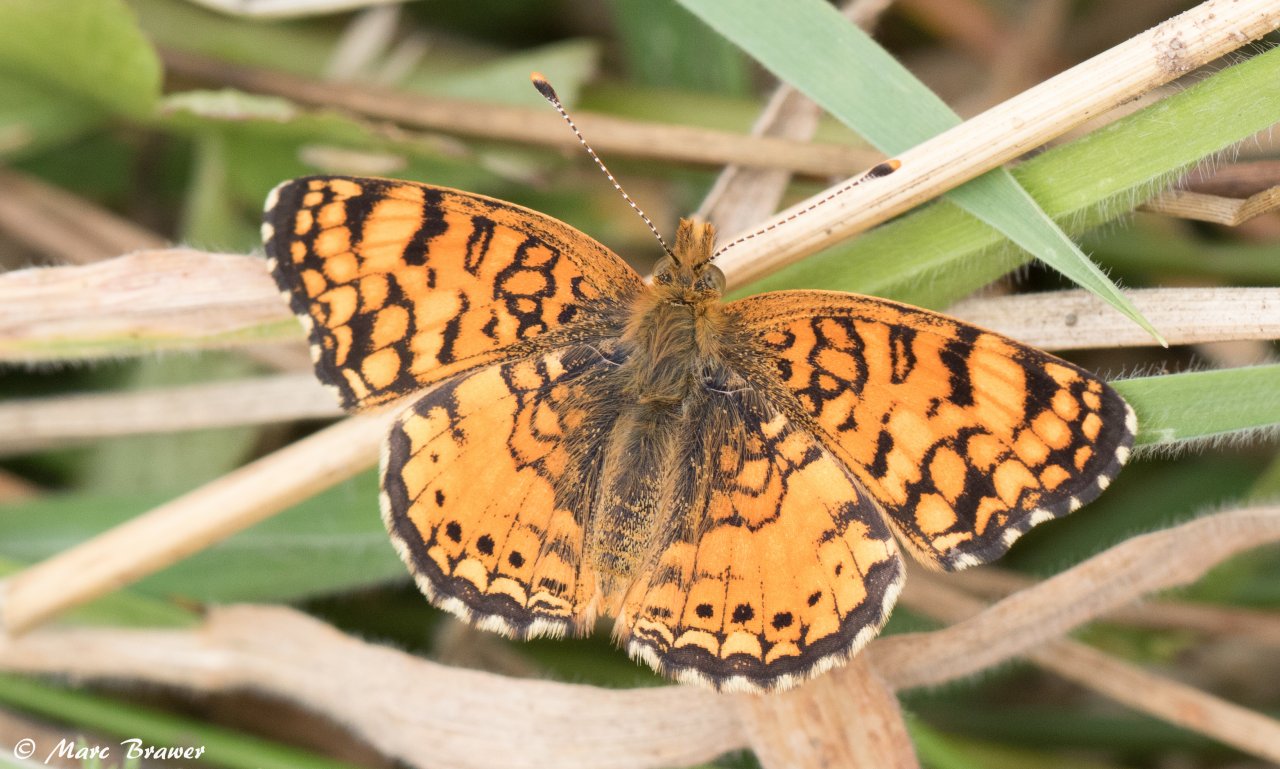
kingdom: Animalia
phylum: Arthropoda
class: Insecta
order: Lepidoptera
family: Nymphalidae
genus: Eresia
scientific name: Eresia aveyrona
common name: Mylitta Crescent
